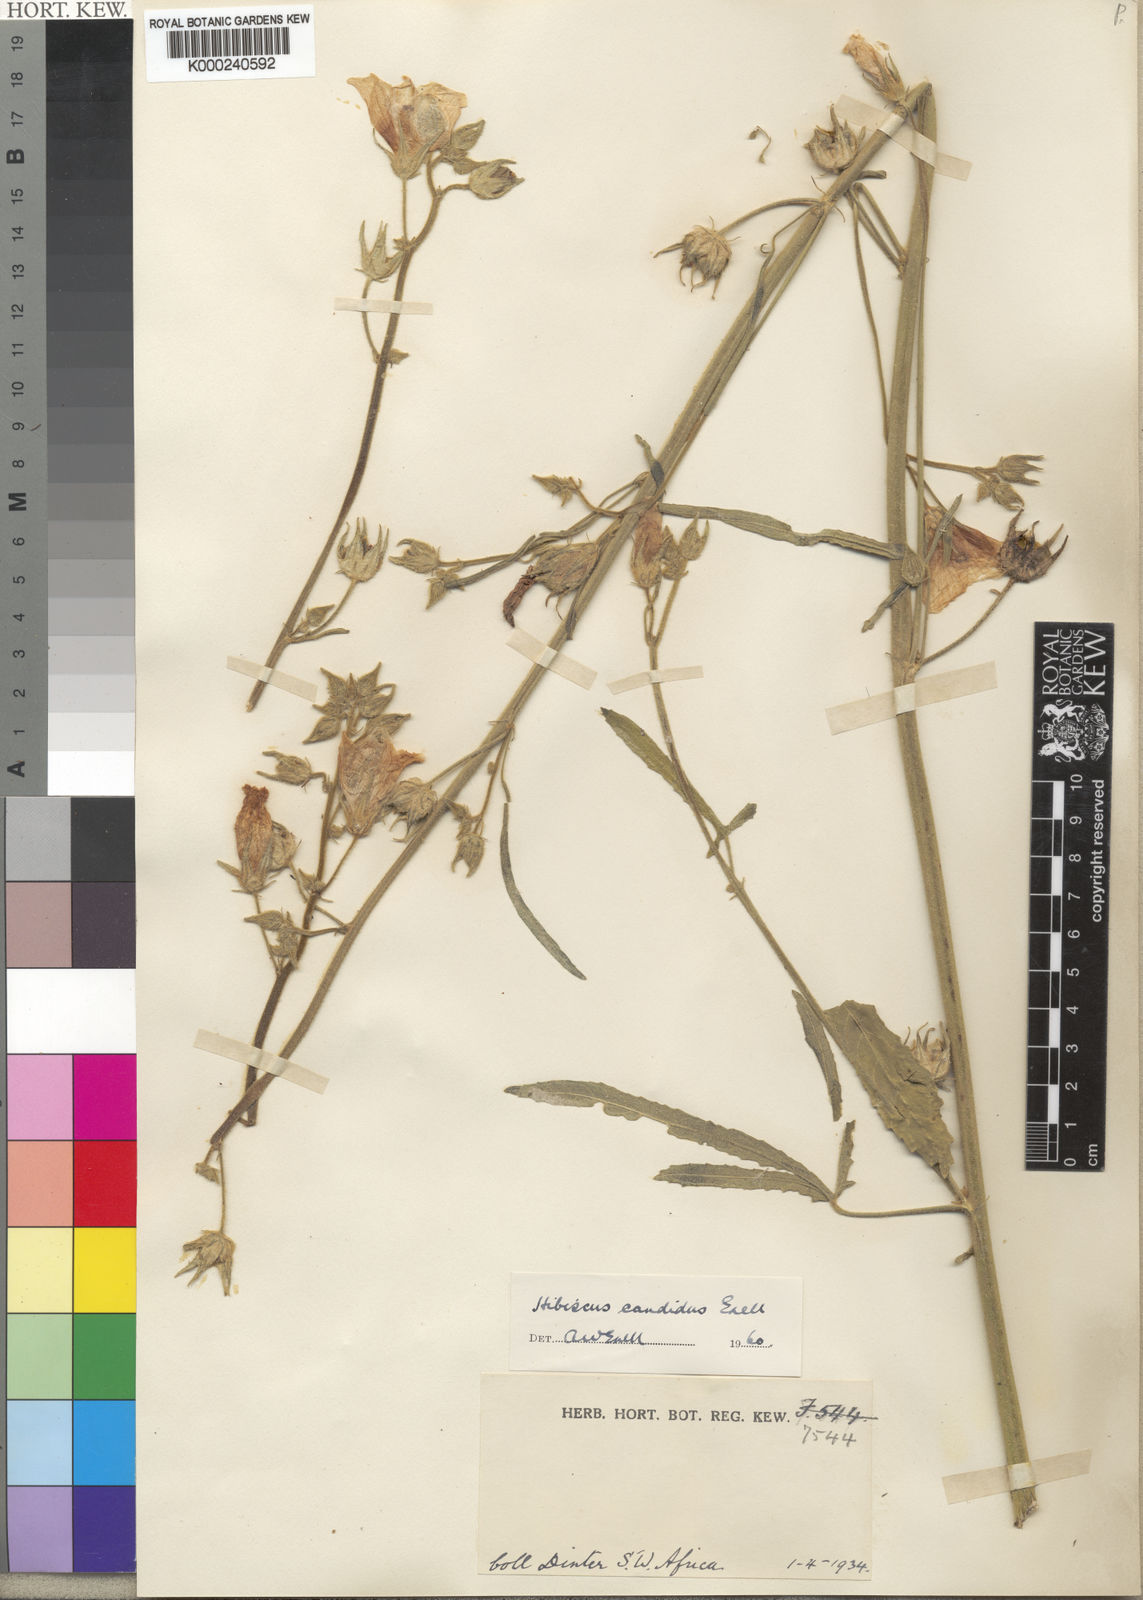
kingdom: Plantae
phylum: Tracheophyta
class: Magnoliopsida
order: Malvales
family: Malvaceae
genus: Hibiscus
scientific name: Hibiscus
